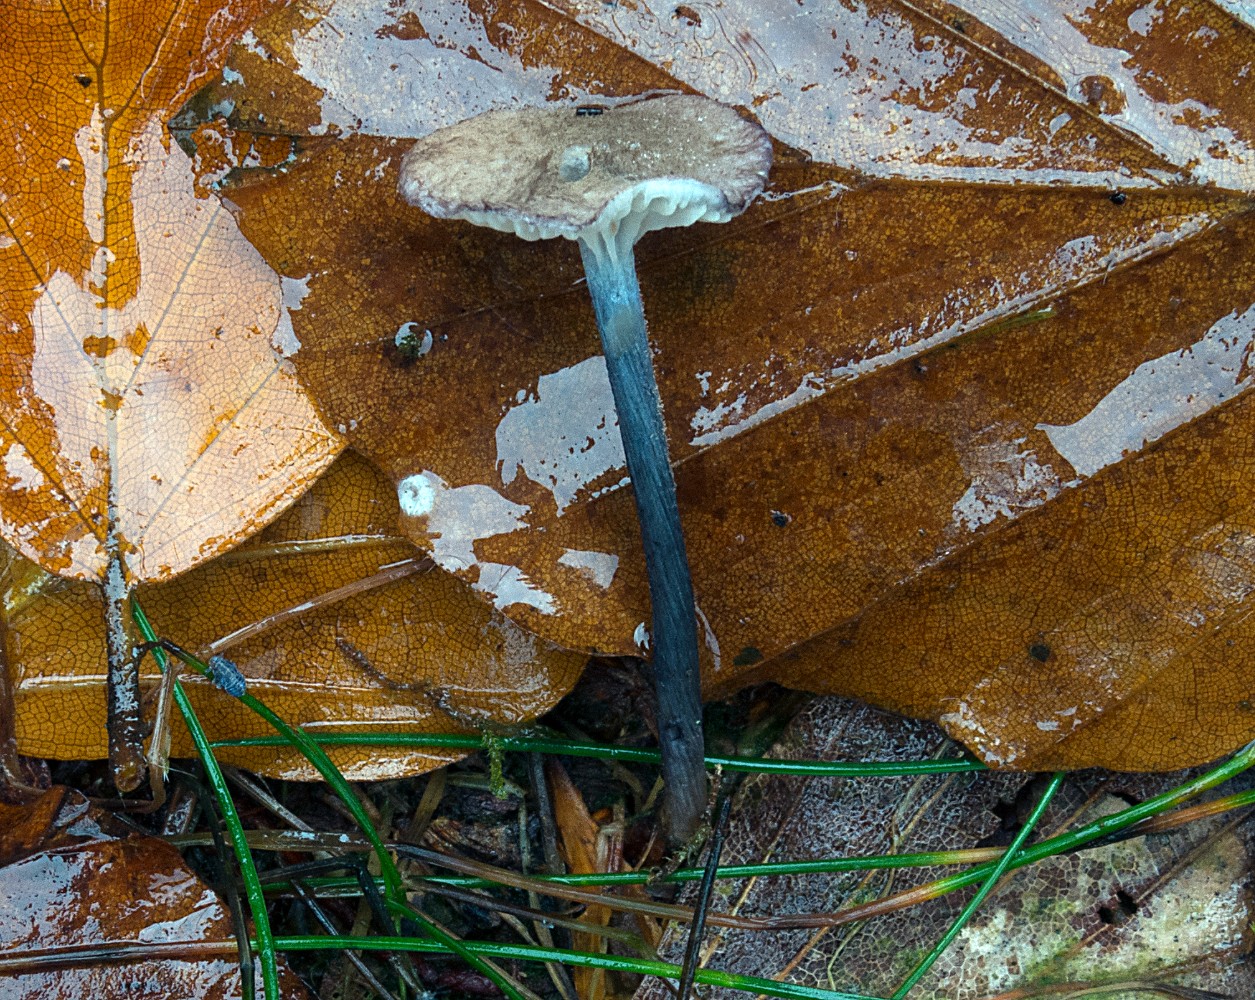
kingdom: Fungi
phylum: Basidiomycota
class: Agaricomycetes
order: Agaricales
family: Entolomataceae
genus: Entoloma
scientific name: Entoloma placidum
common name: bøge-rødblad
